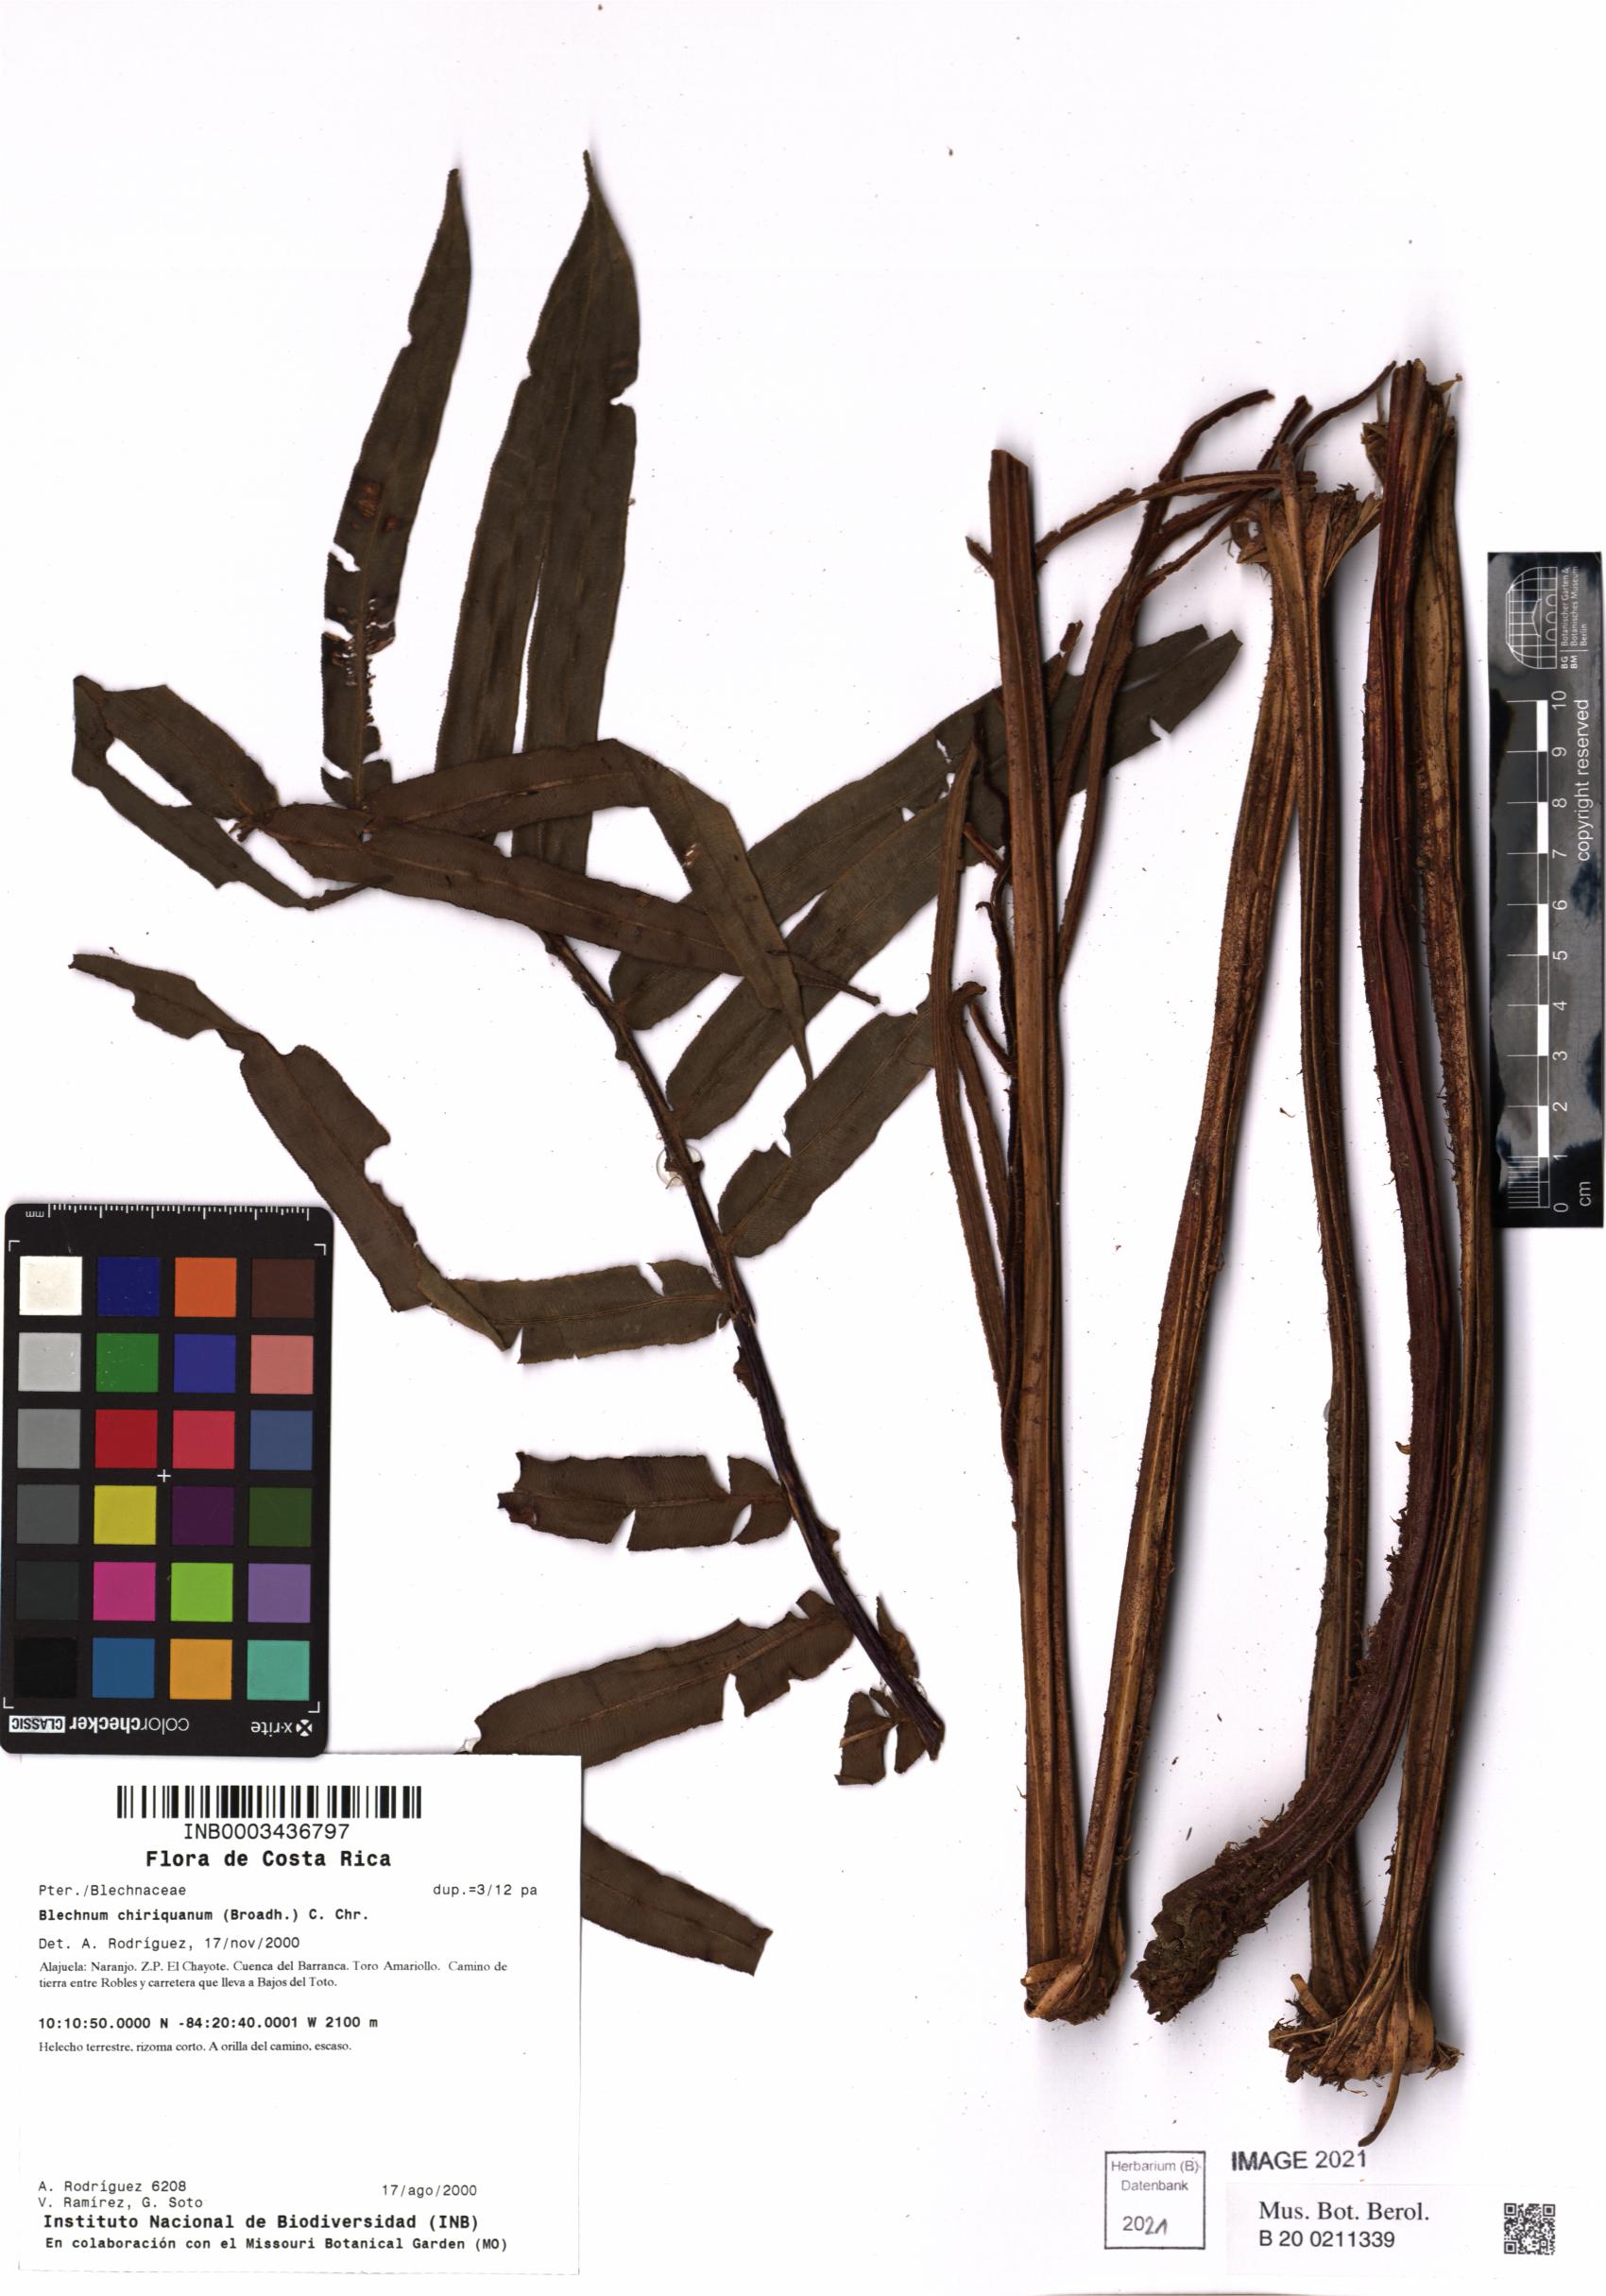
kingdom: Plantae
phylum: Tracheophyta
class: Polypodiopsida
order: Polypodiales
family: Blechnaceae
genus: Parablechnum
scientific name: Parablechnum chiriquanum
